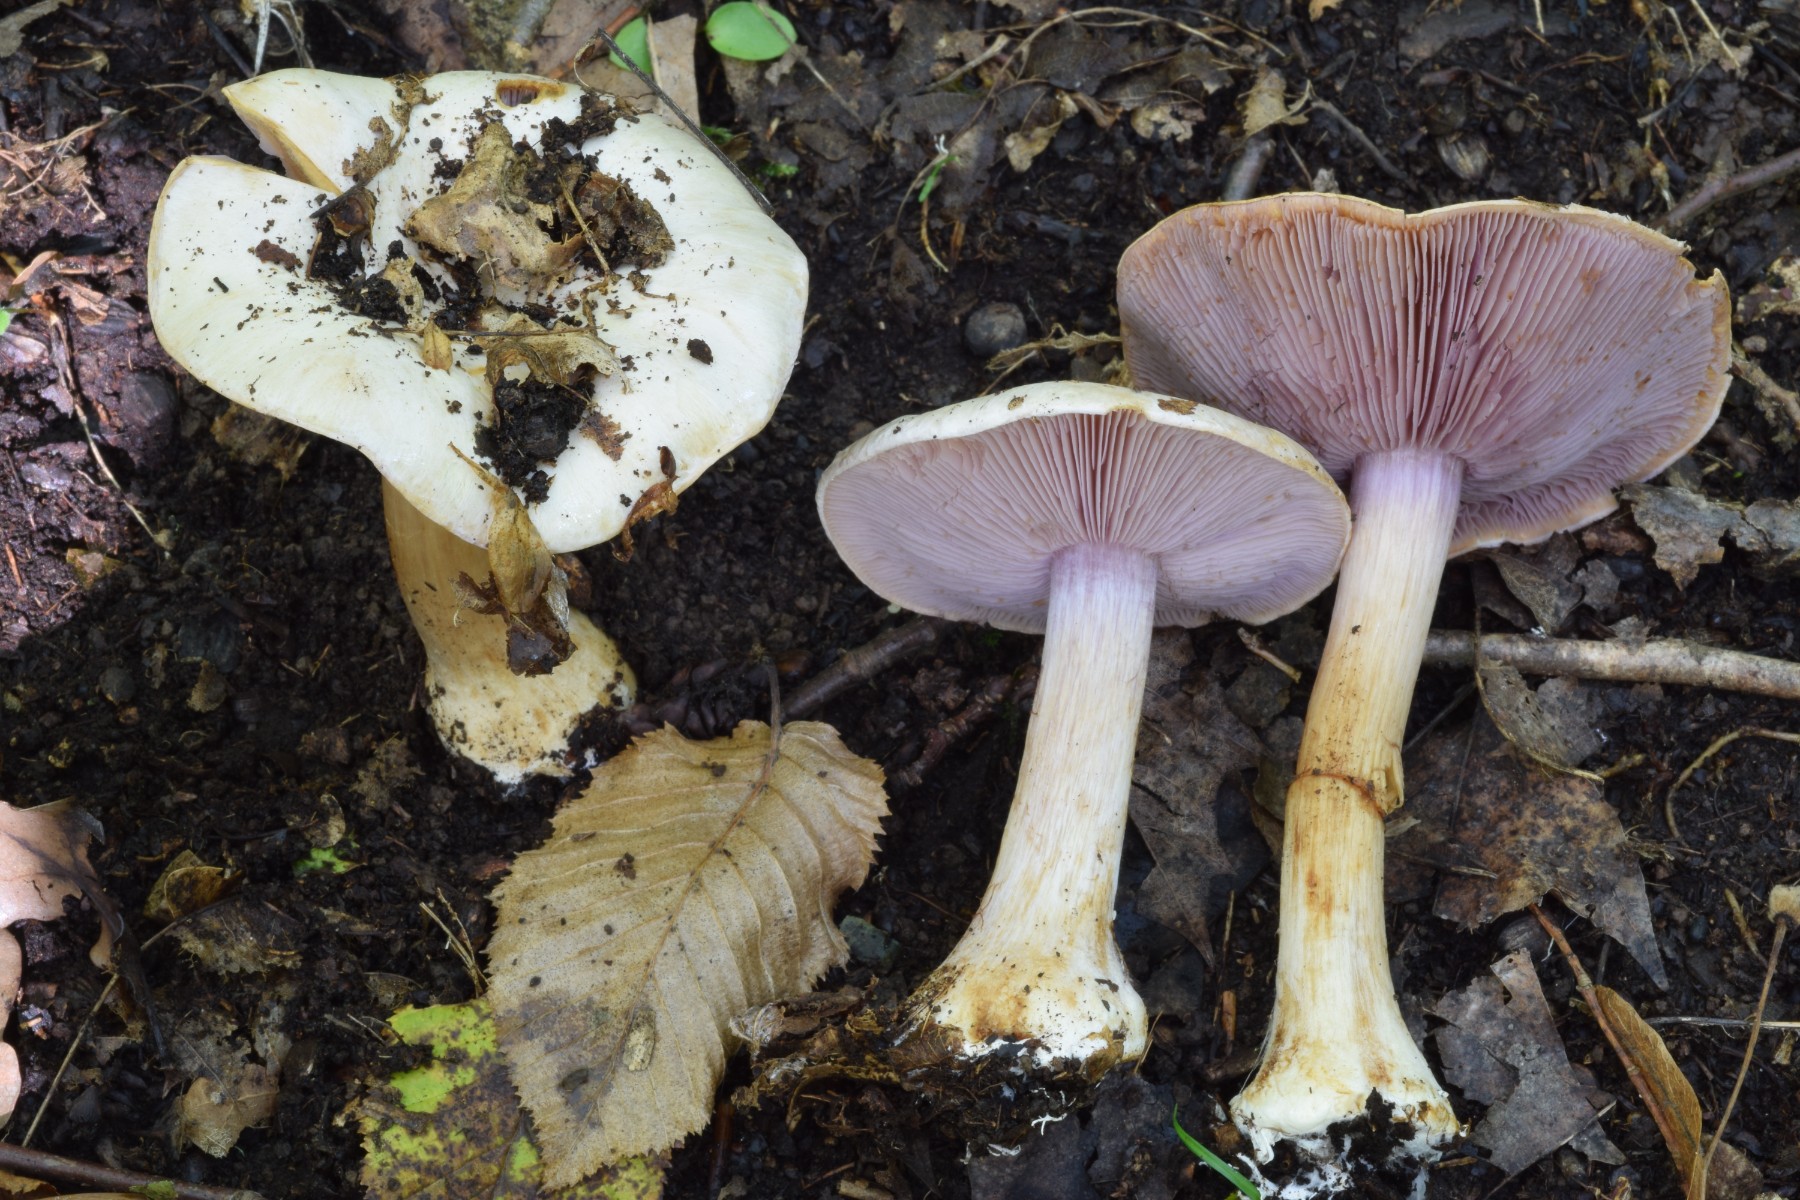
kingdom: Fungi
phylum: Basidiomycota
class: Agaricomycetes
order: Agaricales
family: Cortinariaceae
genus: Calonarius
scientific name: Calonarius insignibulbus
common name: kridt-slørhat
